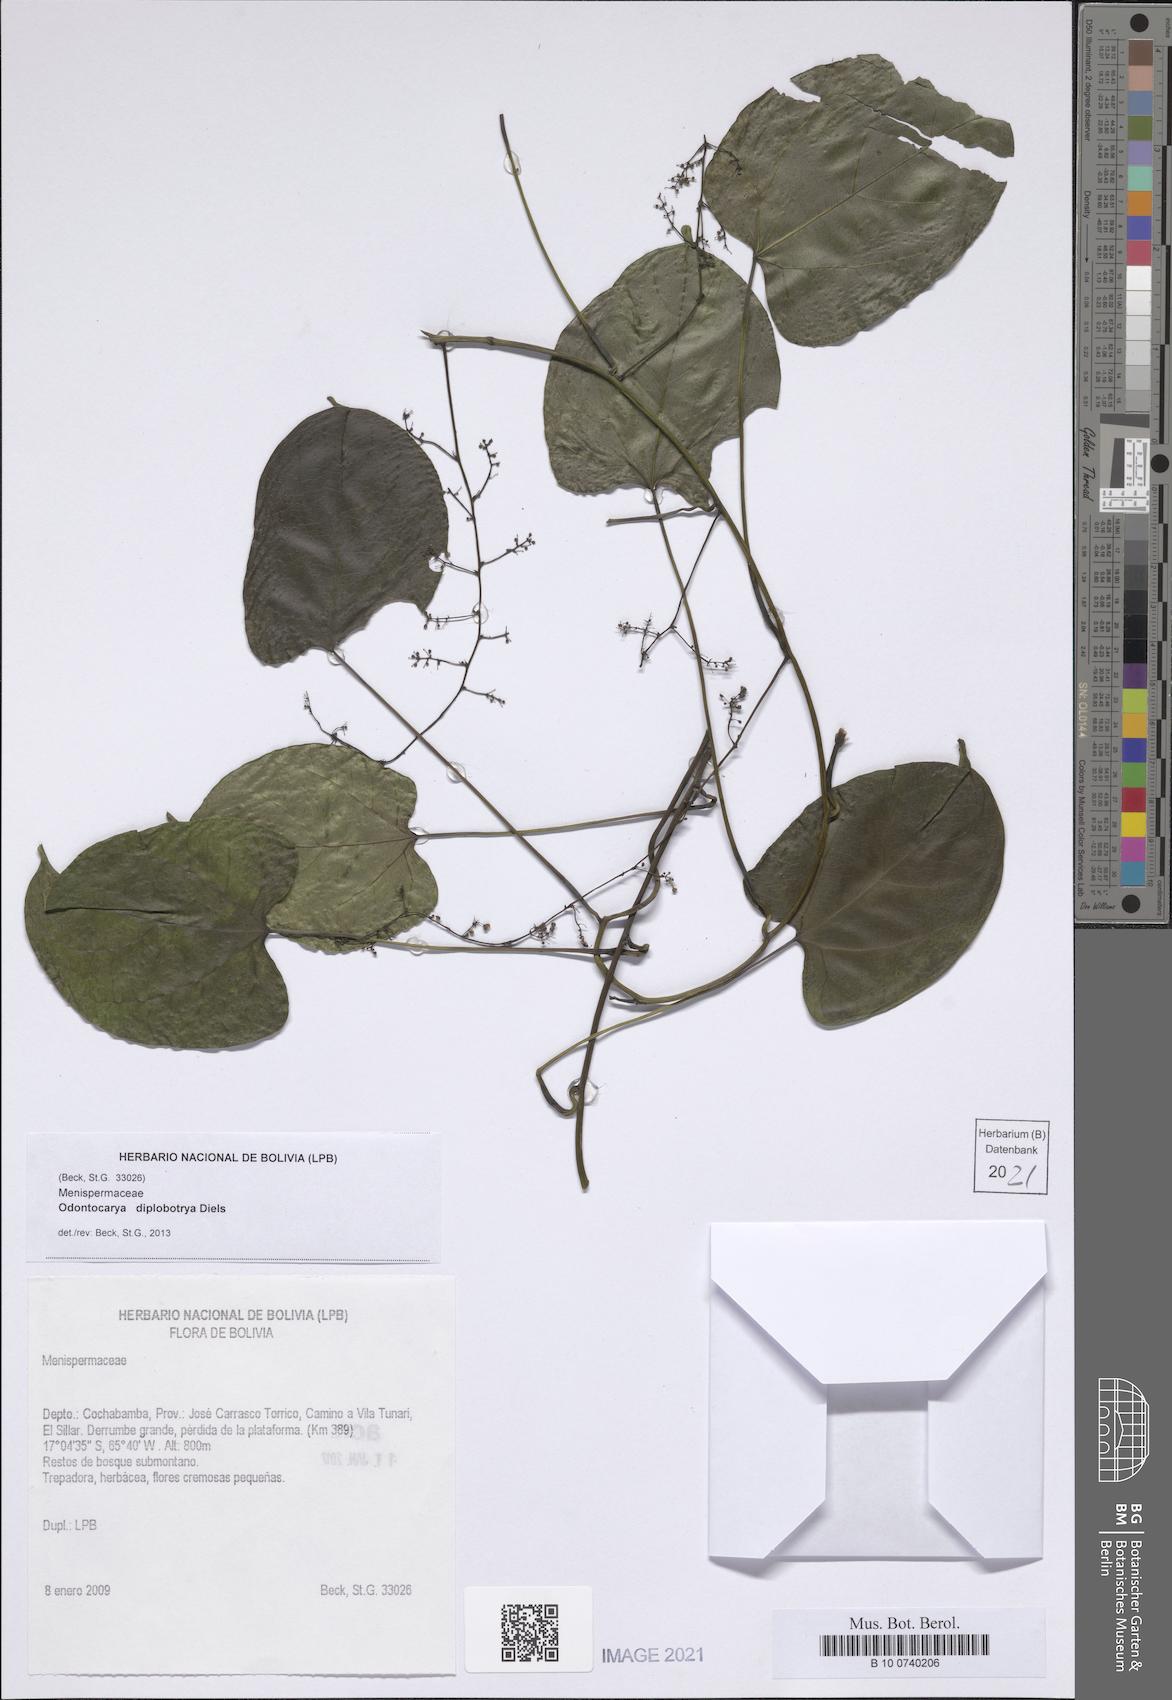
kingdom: Plantae
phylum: Tracheophyta
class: Magnoliopsida
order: Ranunculales
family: Menispermaceae
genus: Odontocarya
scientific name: Odontocarya diplobotrya
